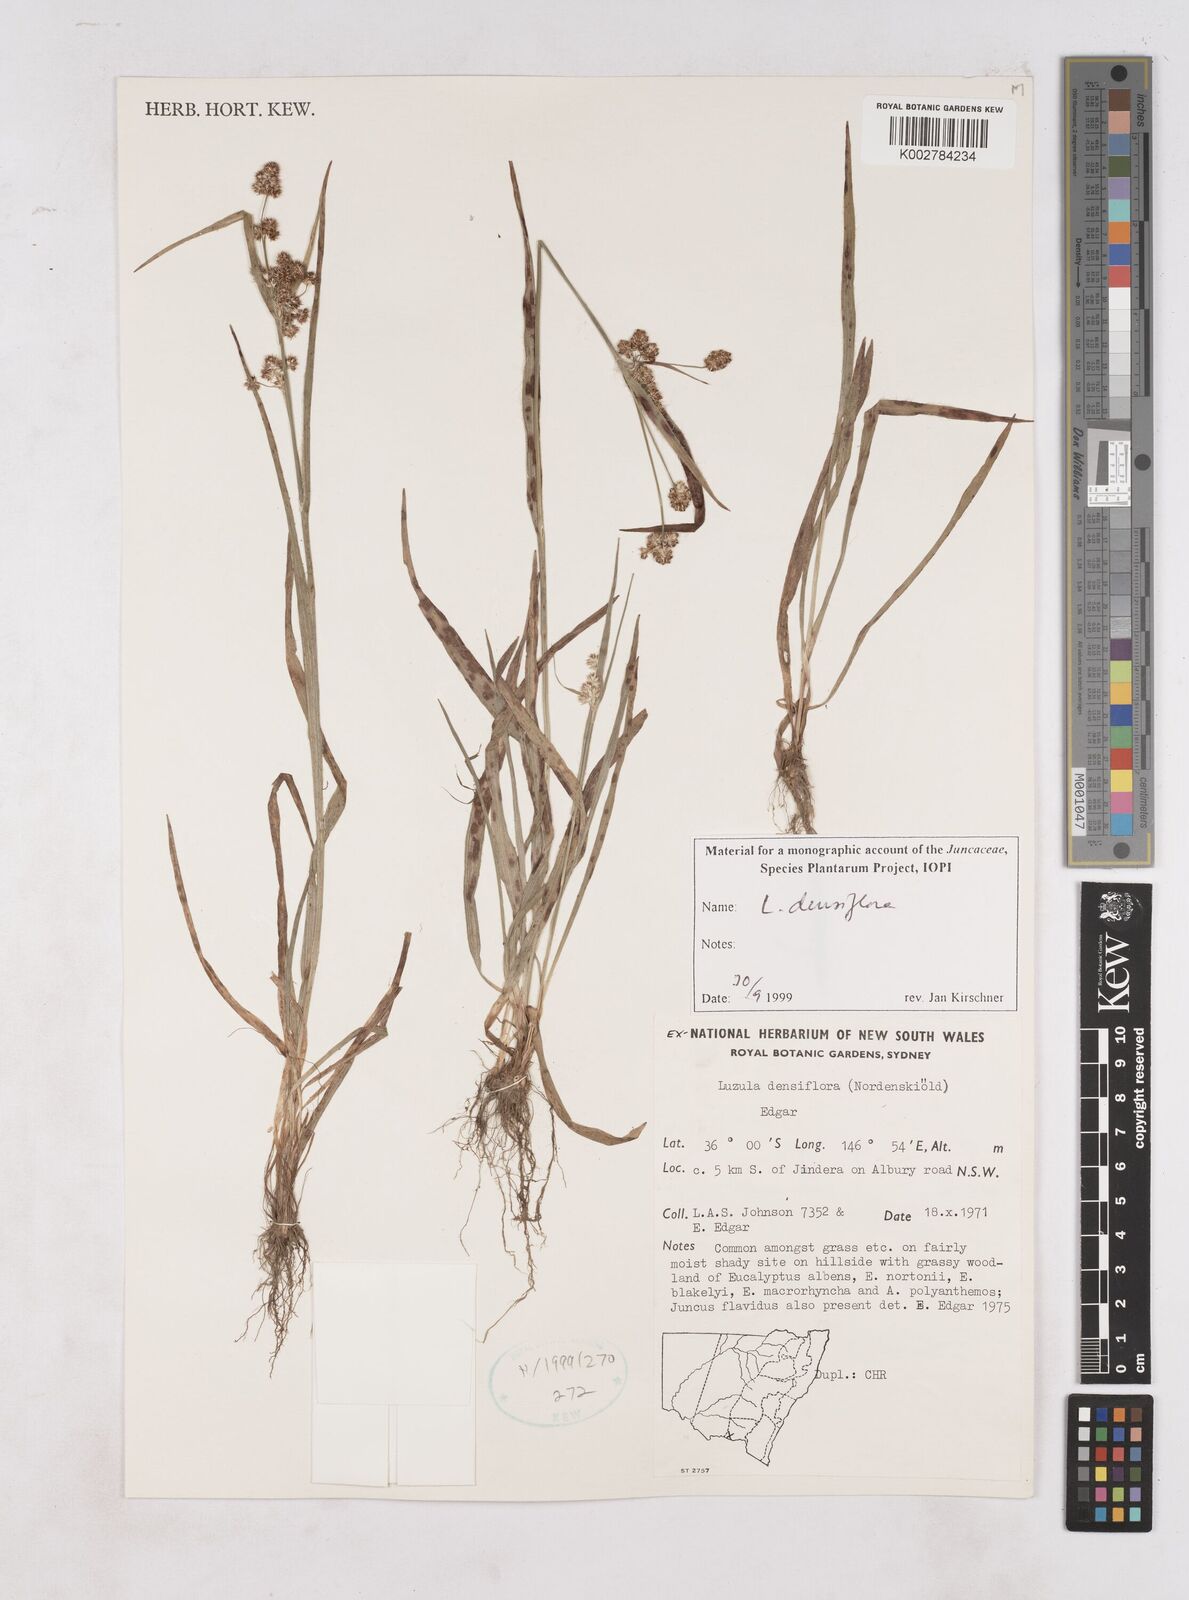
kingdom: Plantae
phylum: Tracheophyta
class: Liliopsida
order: Poales
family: Juncaceae
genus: Luzula
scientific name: Luzula densiflora
